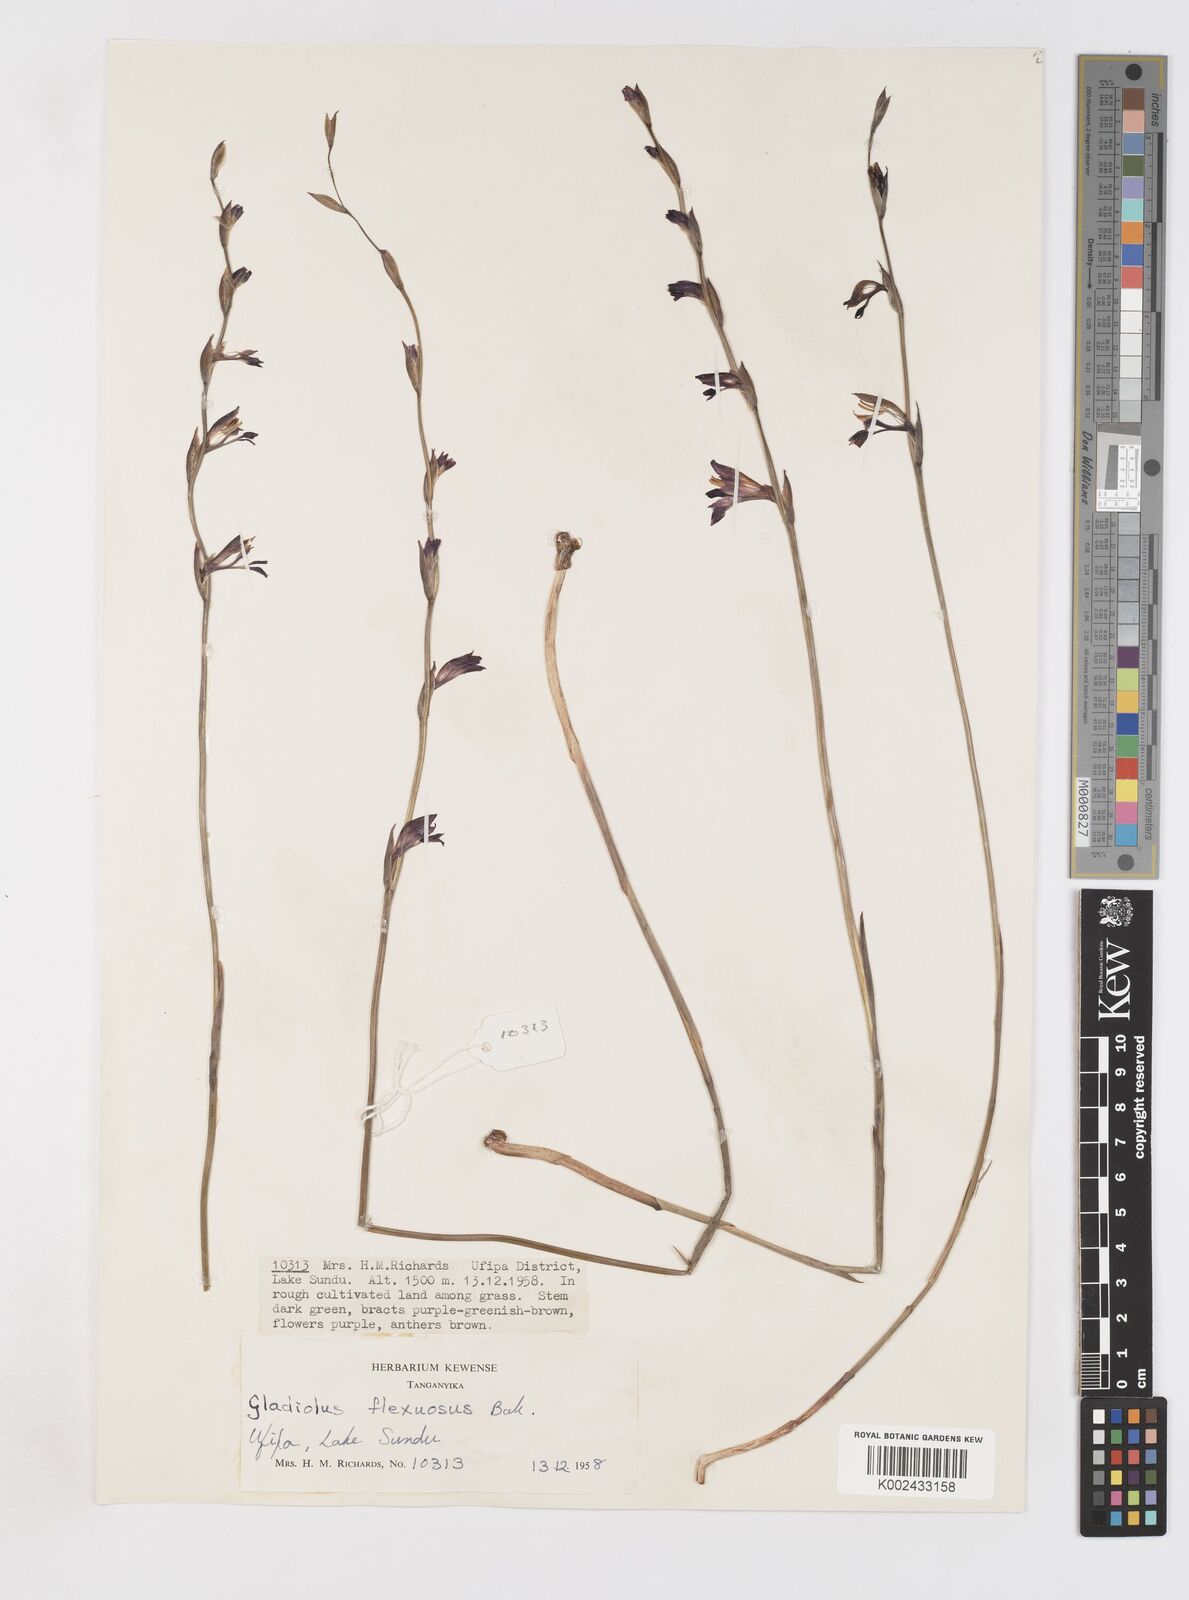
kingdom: Plantae
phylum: Tracheophyta
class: Liliopsida
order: Asparagales
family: Iridaceae
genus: Gladiolus
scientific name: Gladiolus atropurpureus
